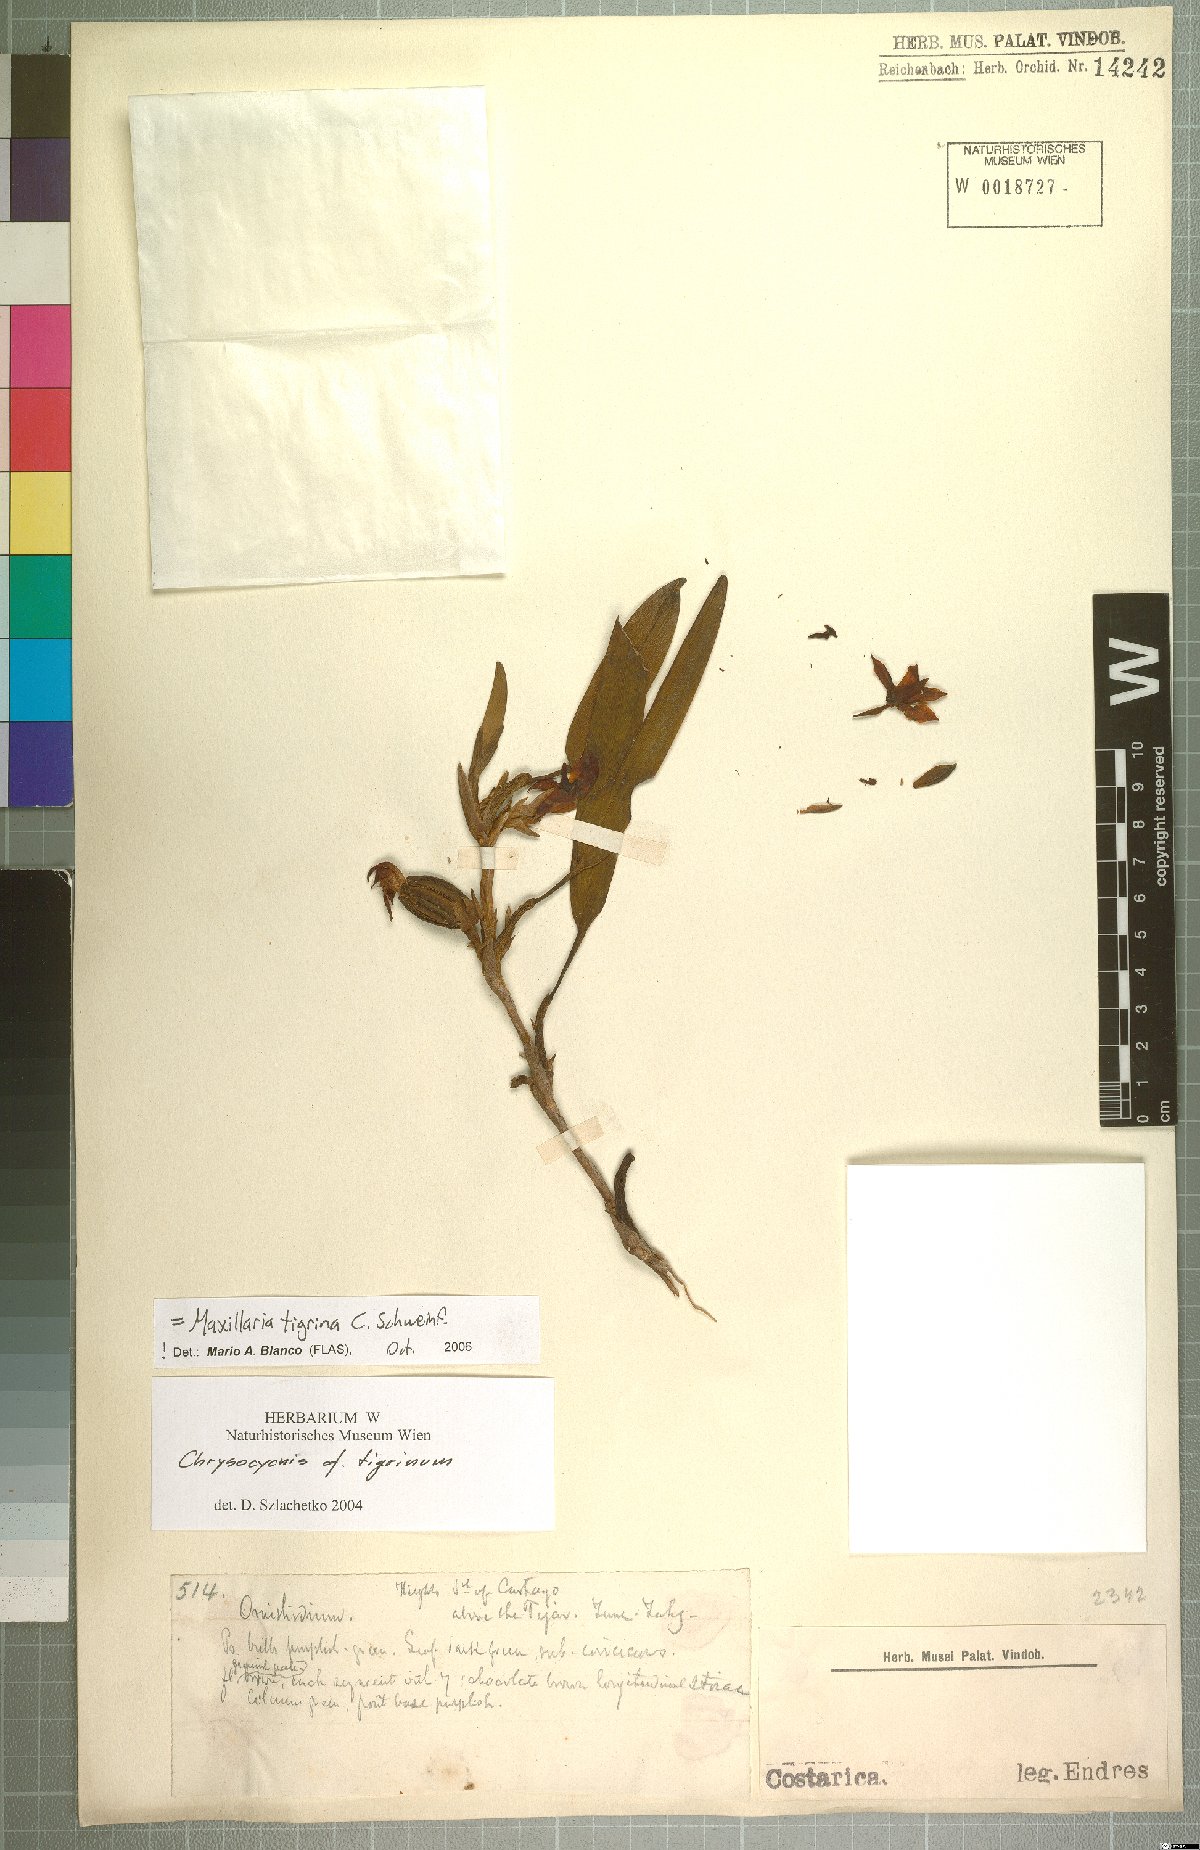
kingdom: Plantae
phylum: Tracheophyta
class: Liliopsida
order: Asparagales
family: Orchidaceae
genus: Maxillaria
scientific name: Maxillaria tigrina
